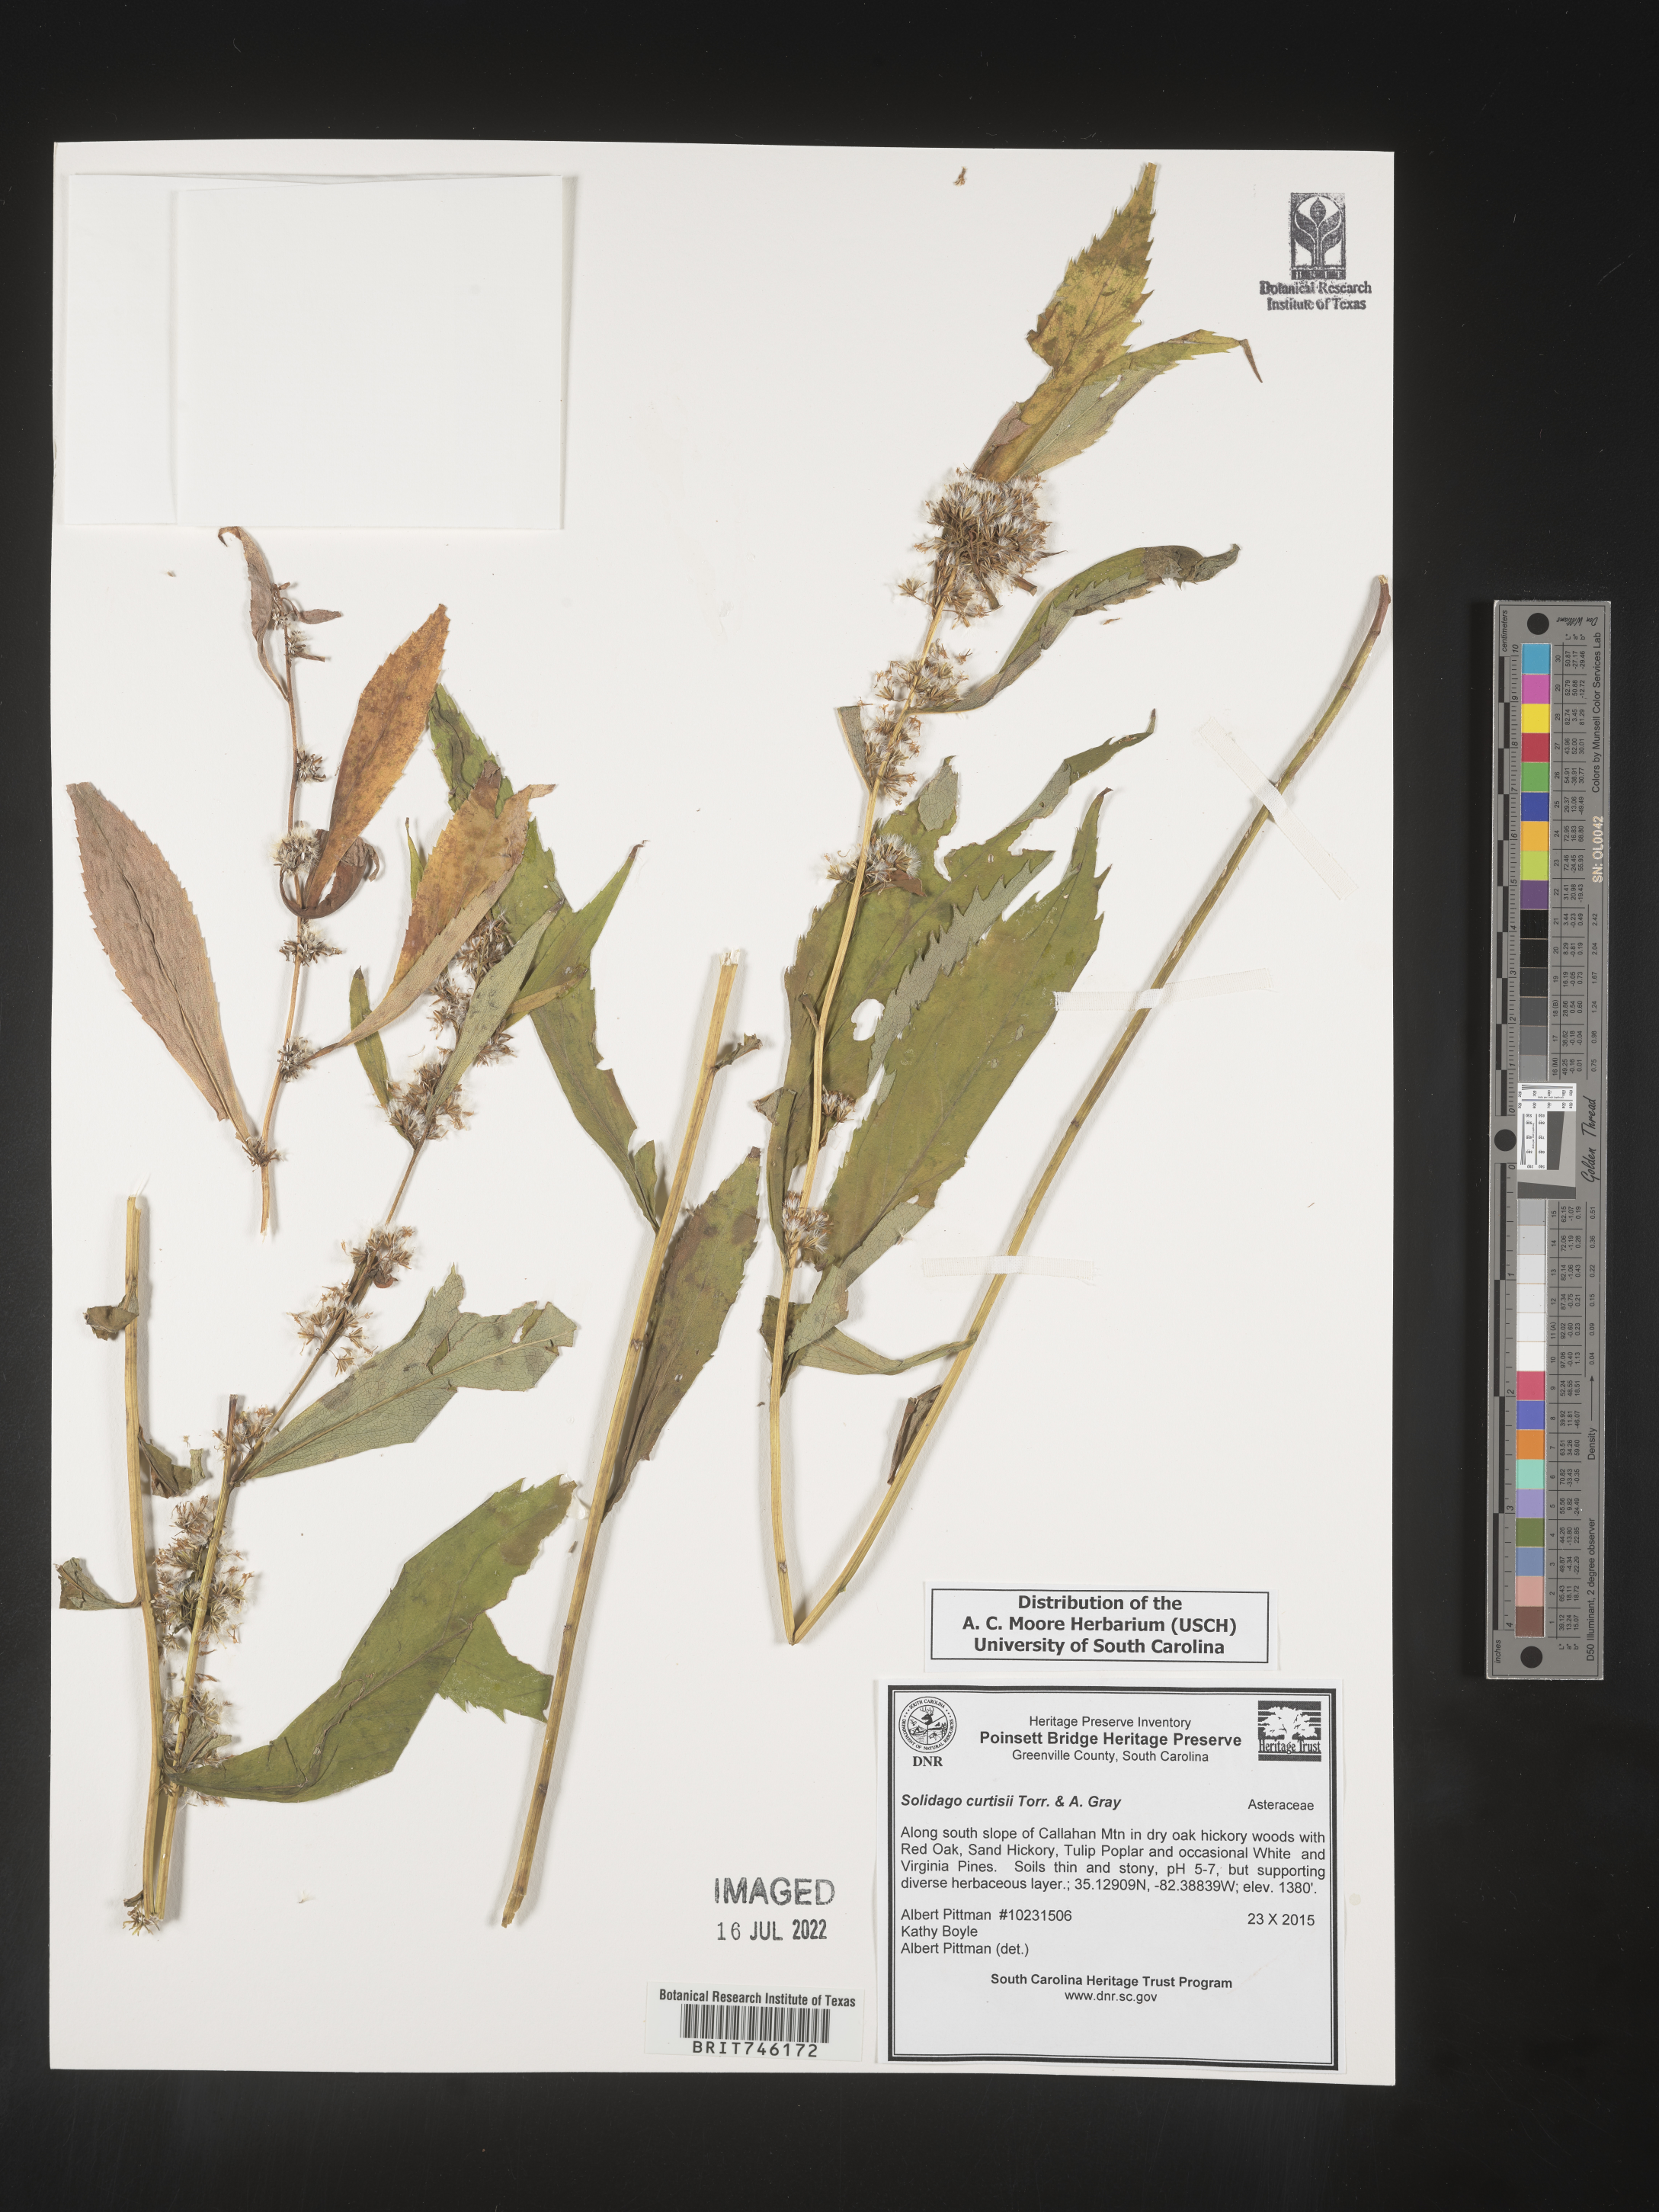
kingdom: Plantae
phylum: Tracheophyta
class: Magnoliopsida
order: Asterales
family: Asteraceae
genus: Solidago
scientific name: Solidago curtisii
